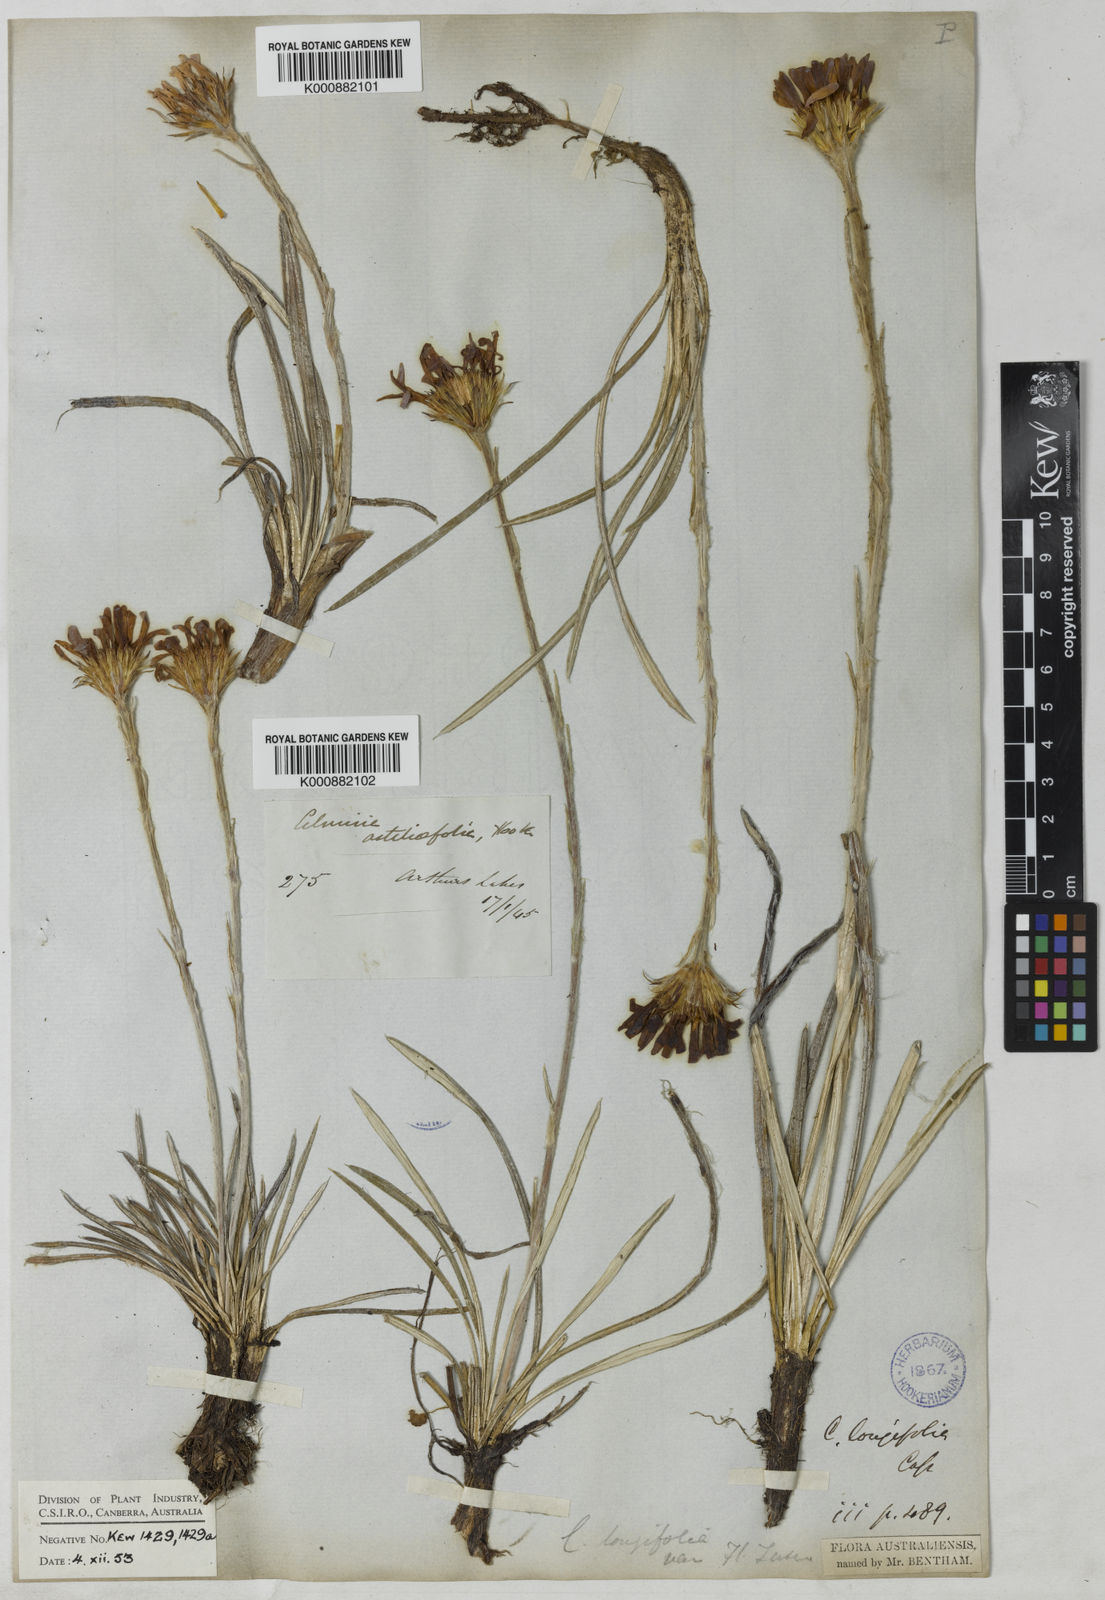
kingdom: Plantae
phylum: Tracheophyta
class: Magnoliopsida
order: Asterales
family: Asteraceae
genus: Celmisia
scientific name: Celmisia longifolia
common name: Silver snow daisy
